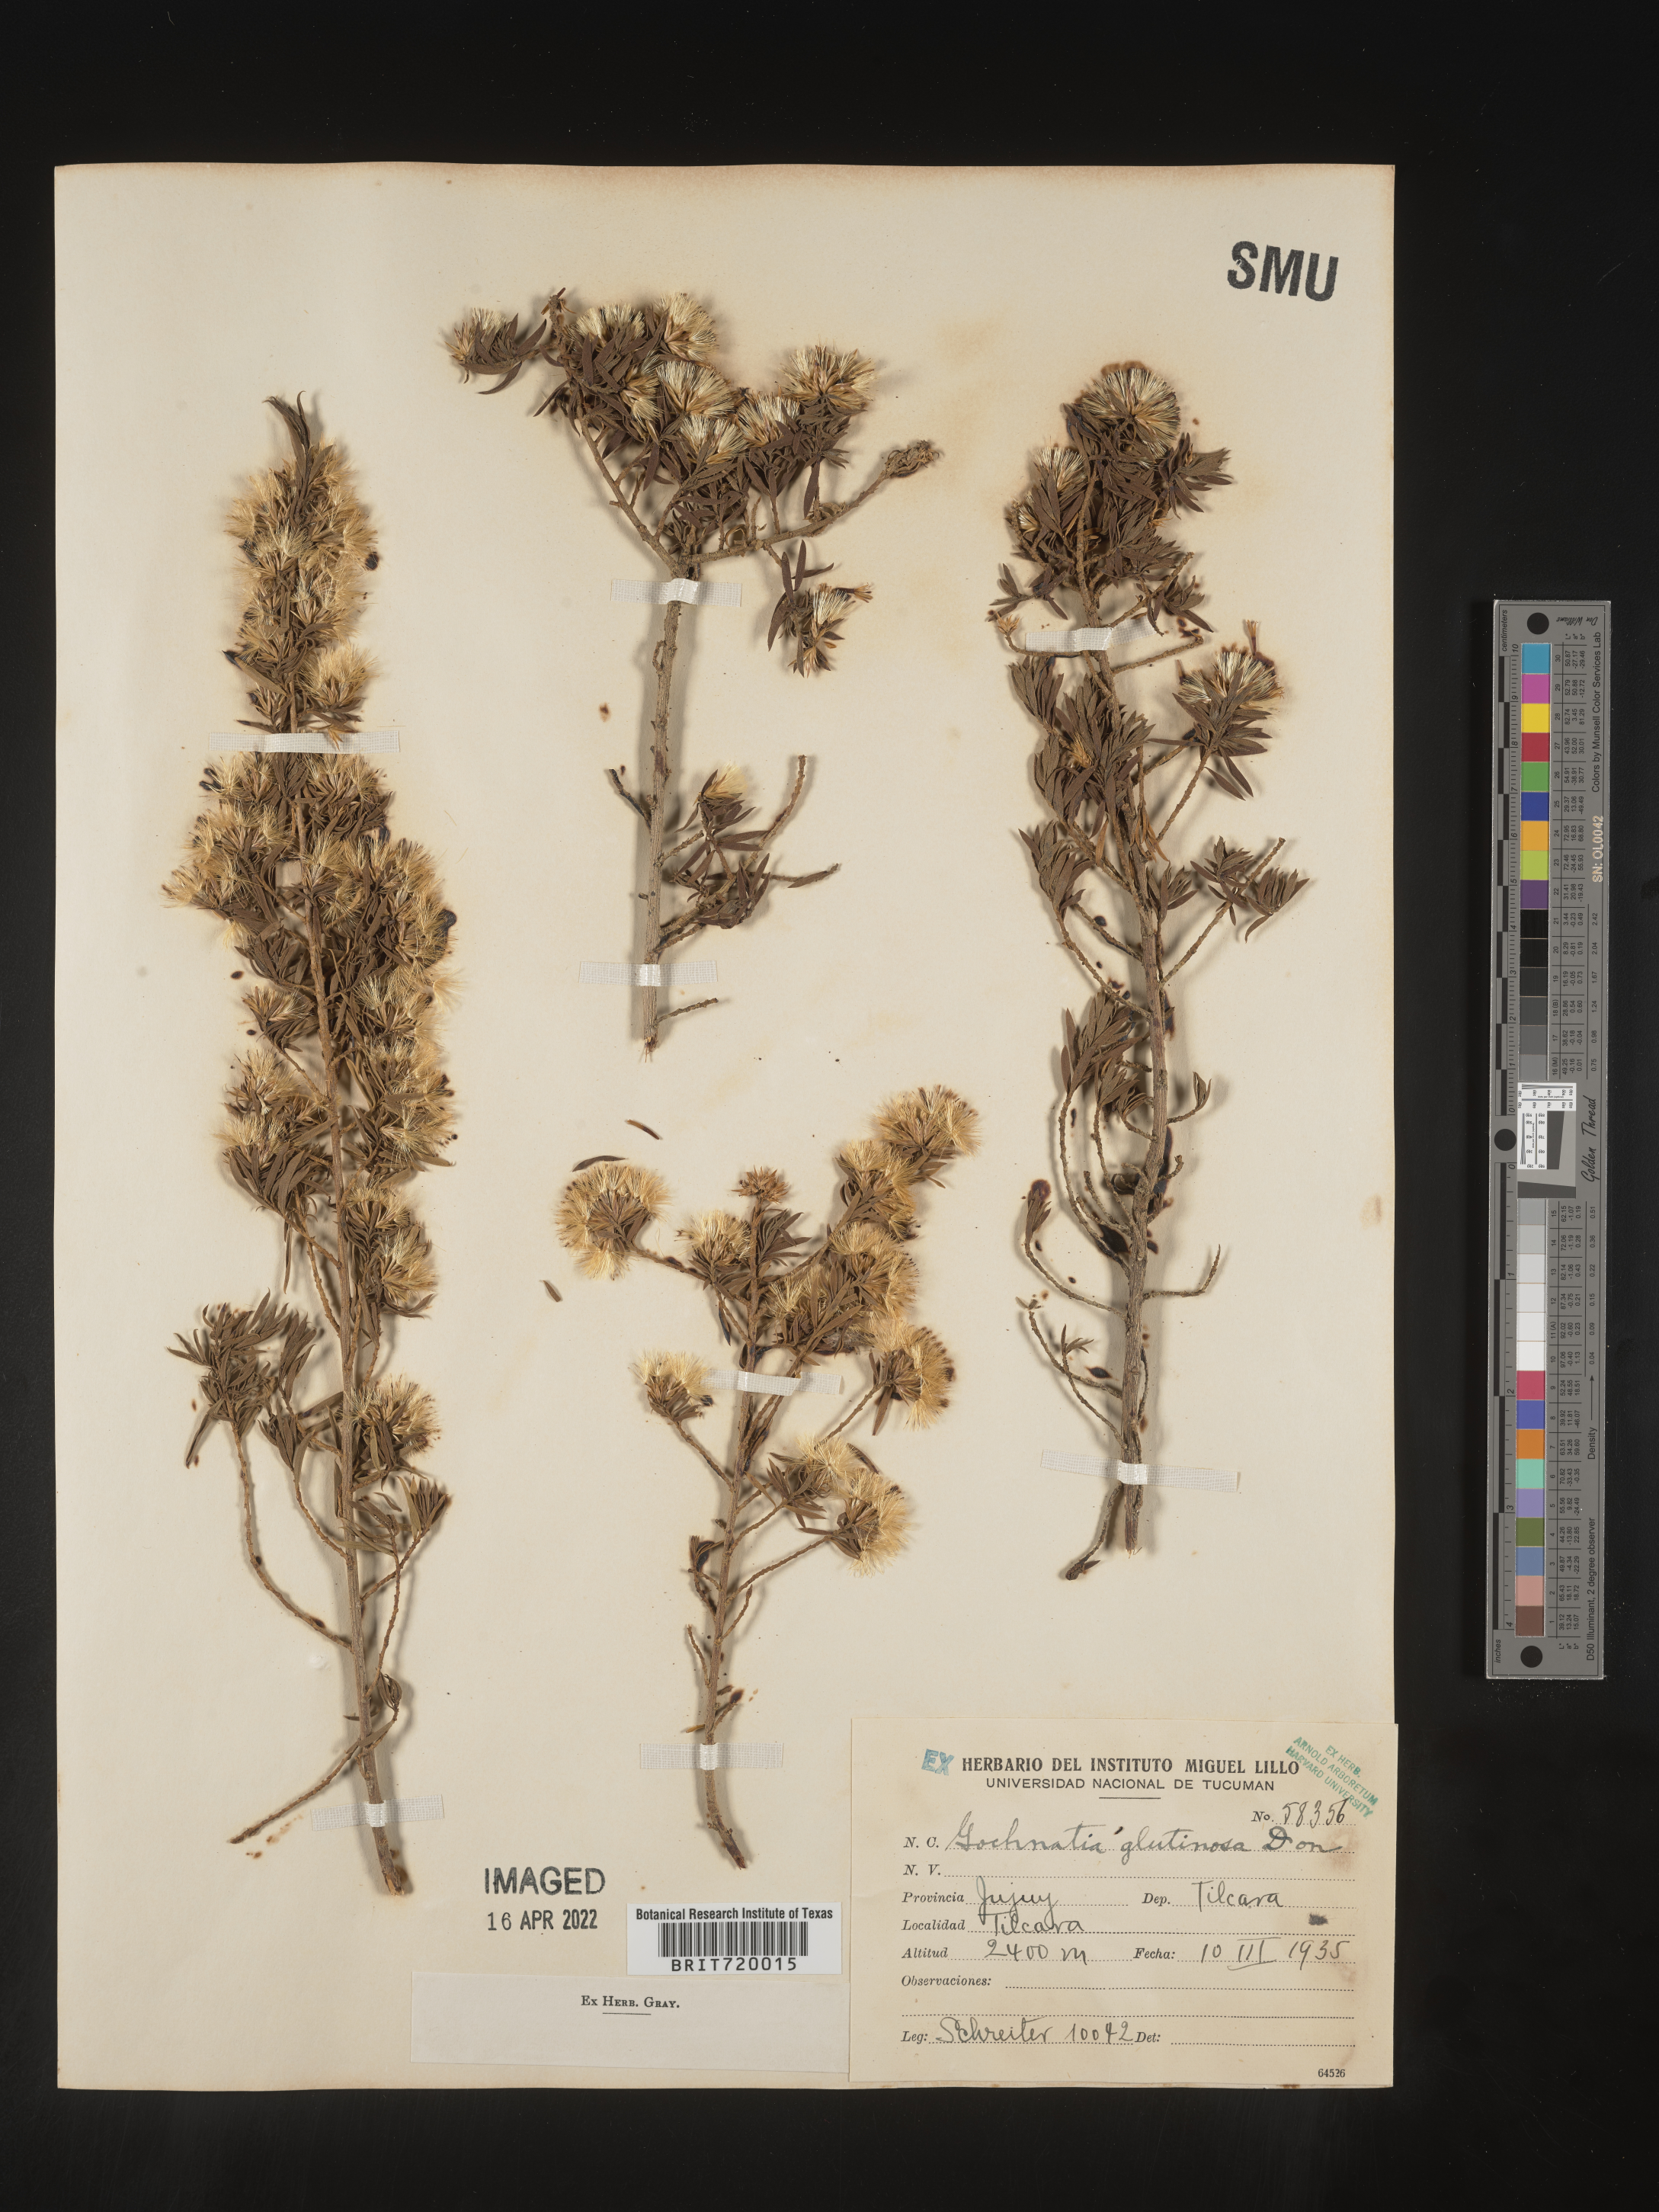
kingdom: Plantae
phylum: Tracheophyta
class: Magnoliopsida
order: Asterales
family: Asteraceae
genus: Gochnatia
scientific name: Gochnatia
